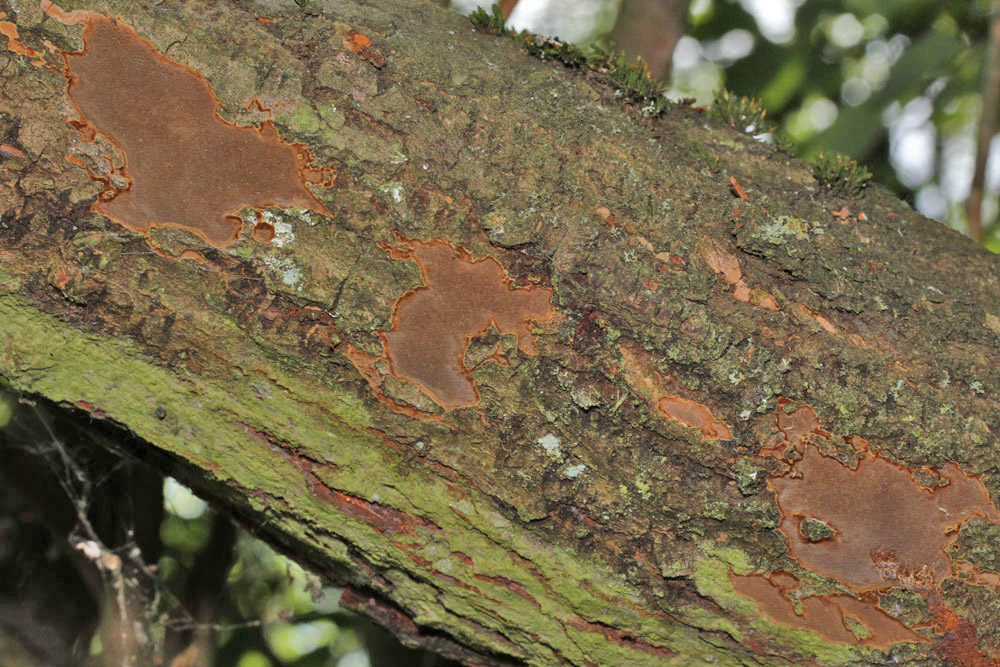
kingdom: Fungi
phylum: Basidiomycota
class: Agaricomycetes
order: Hymenochaetales
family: Hymenochaetaceae
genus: Fomitiporia
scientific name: Fomitiporia punctata
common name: pude-ildporesvamp
